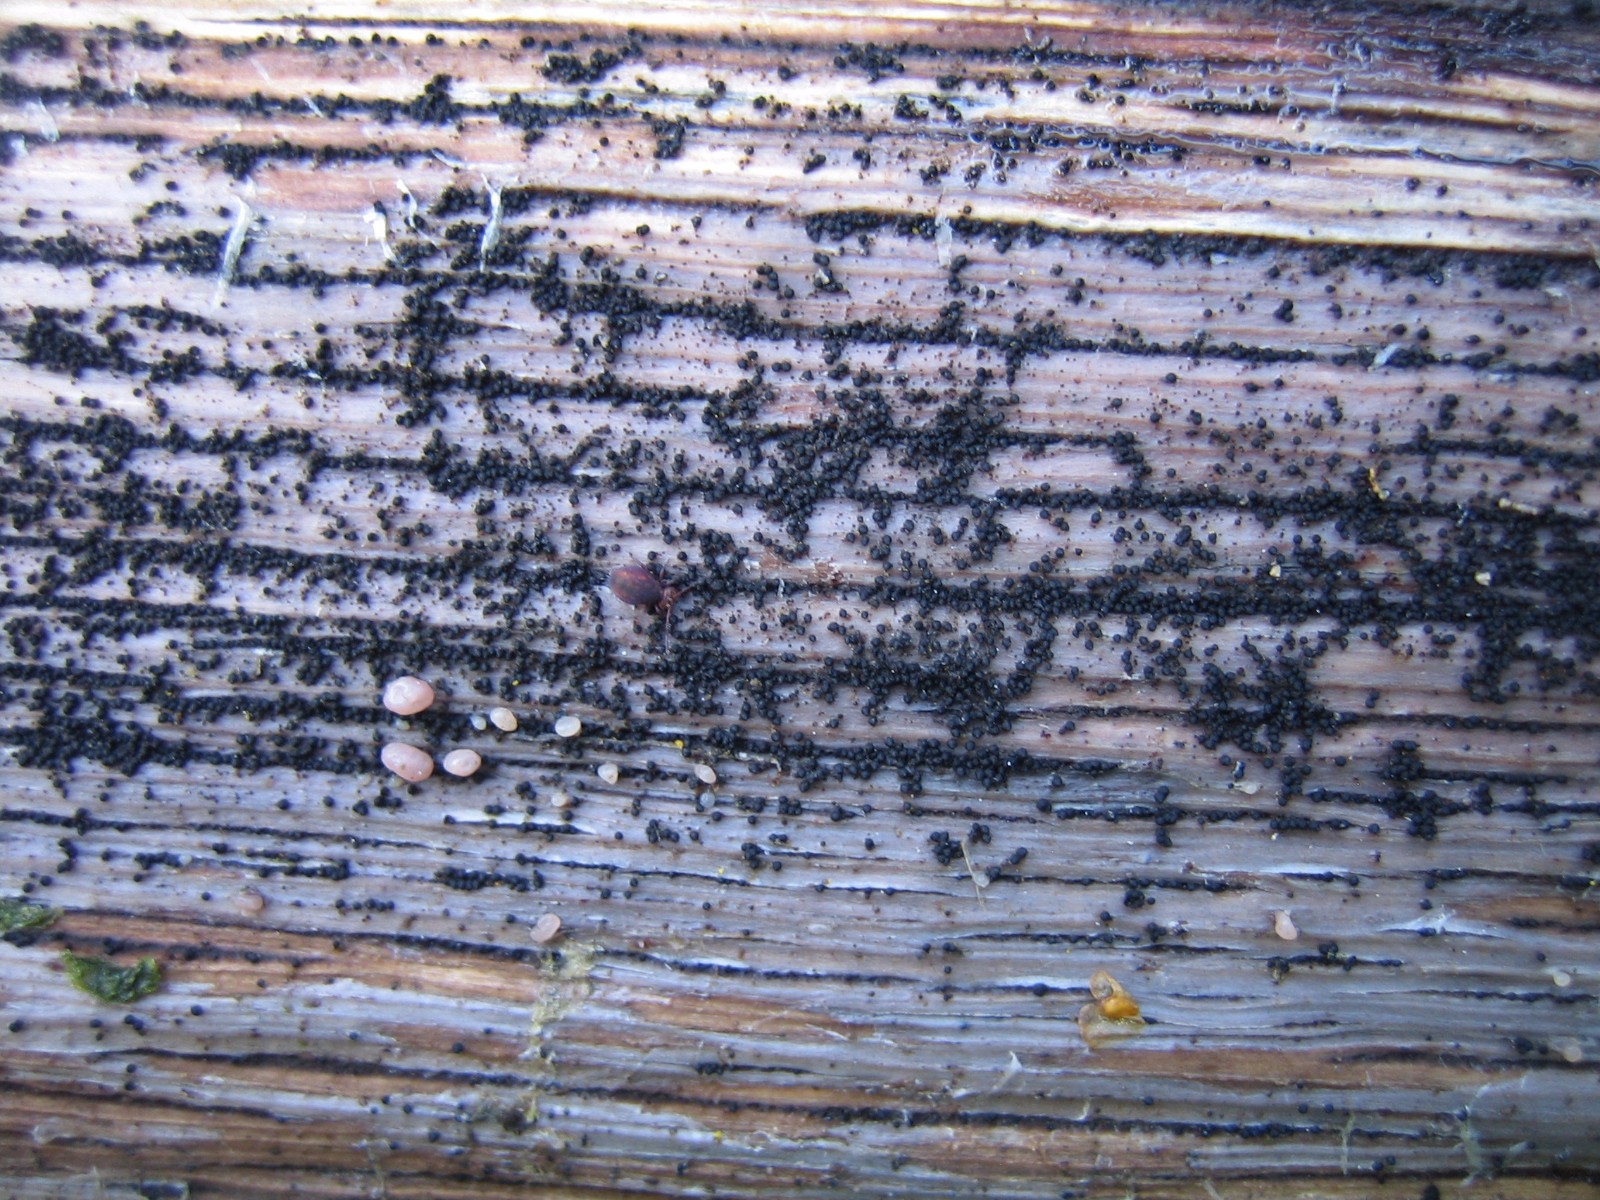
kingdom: Fungi
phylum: Ascomycota
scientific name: Ascomycota
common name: sæksvampe
